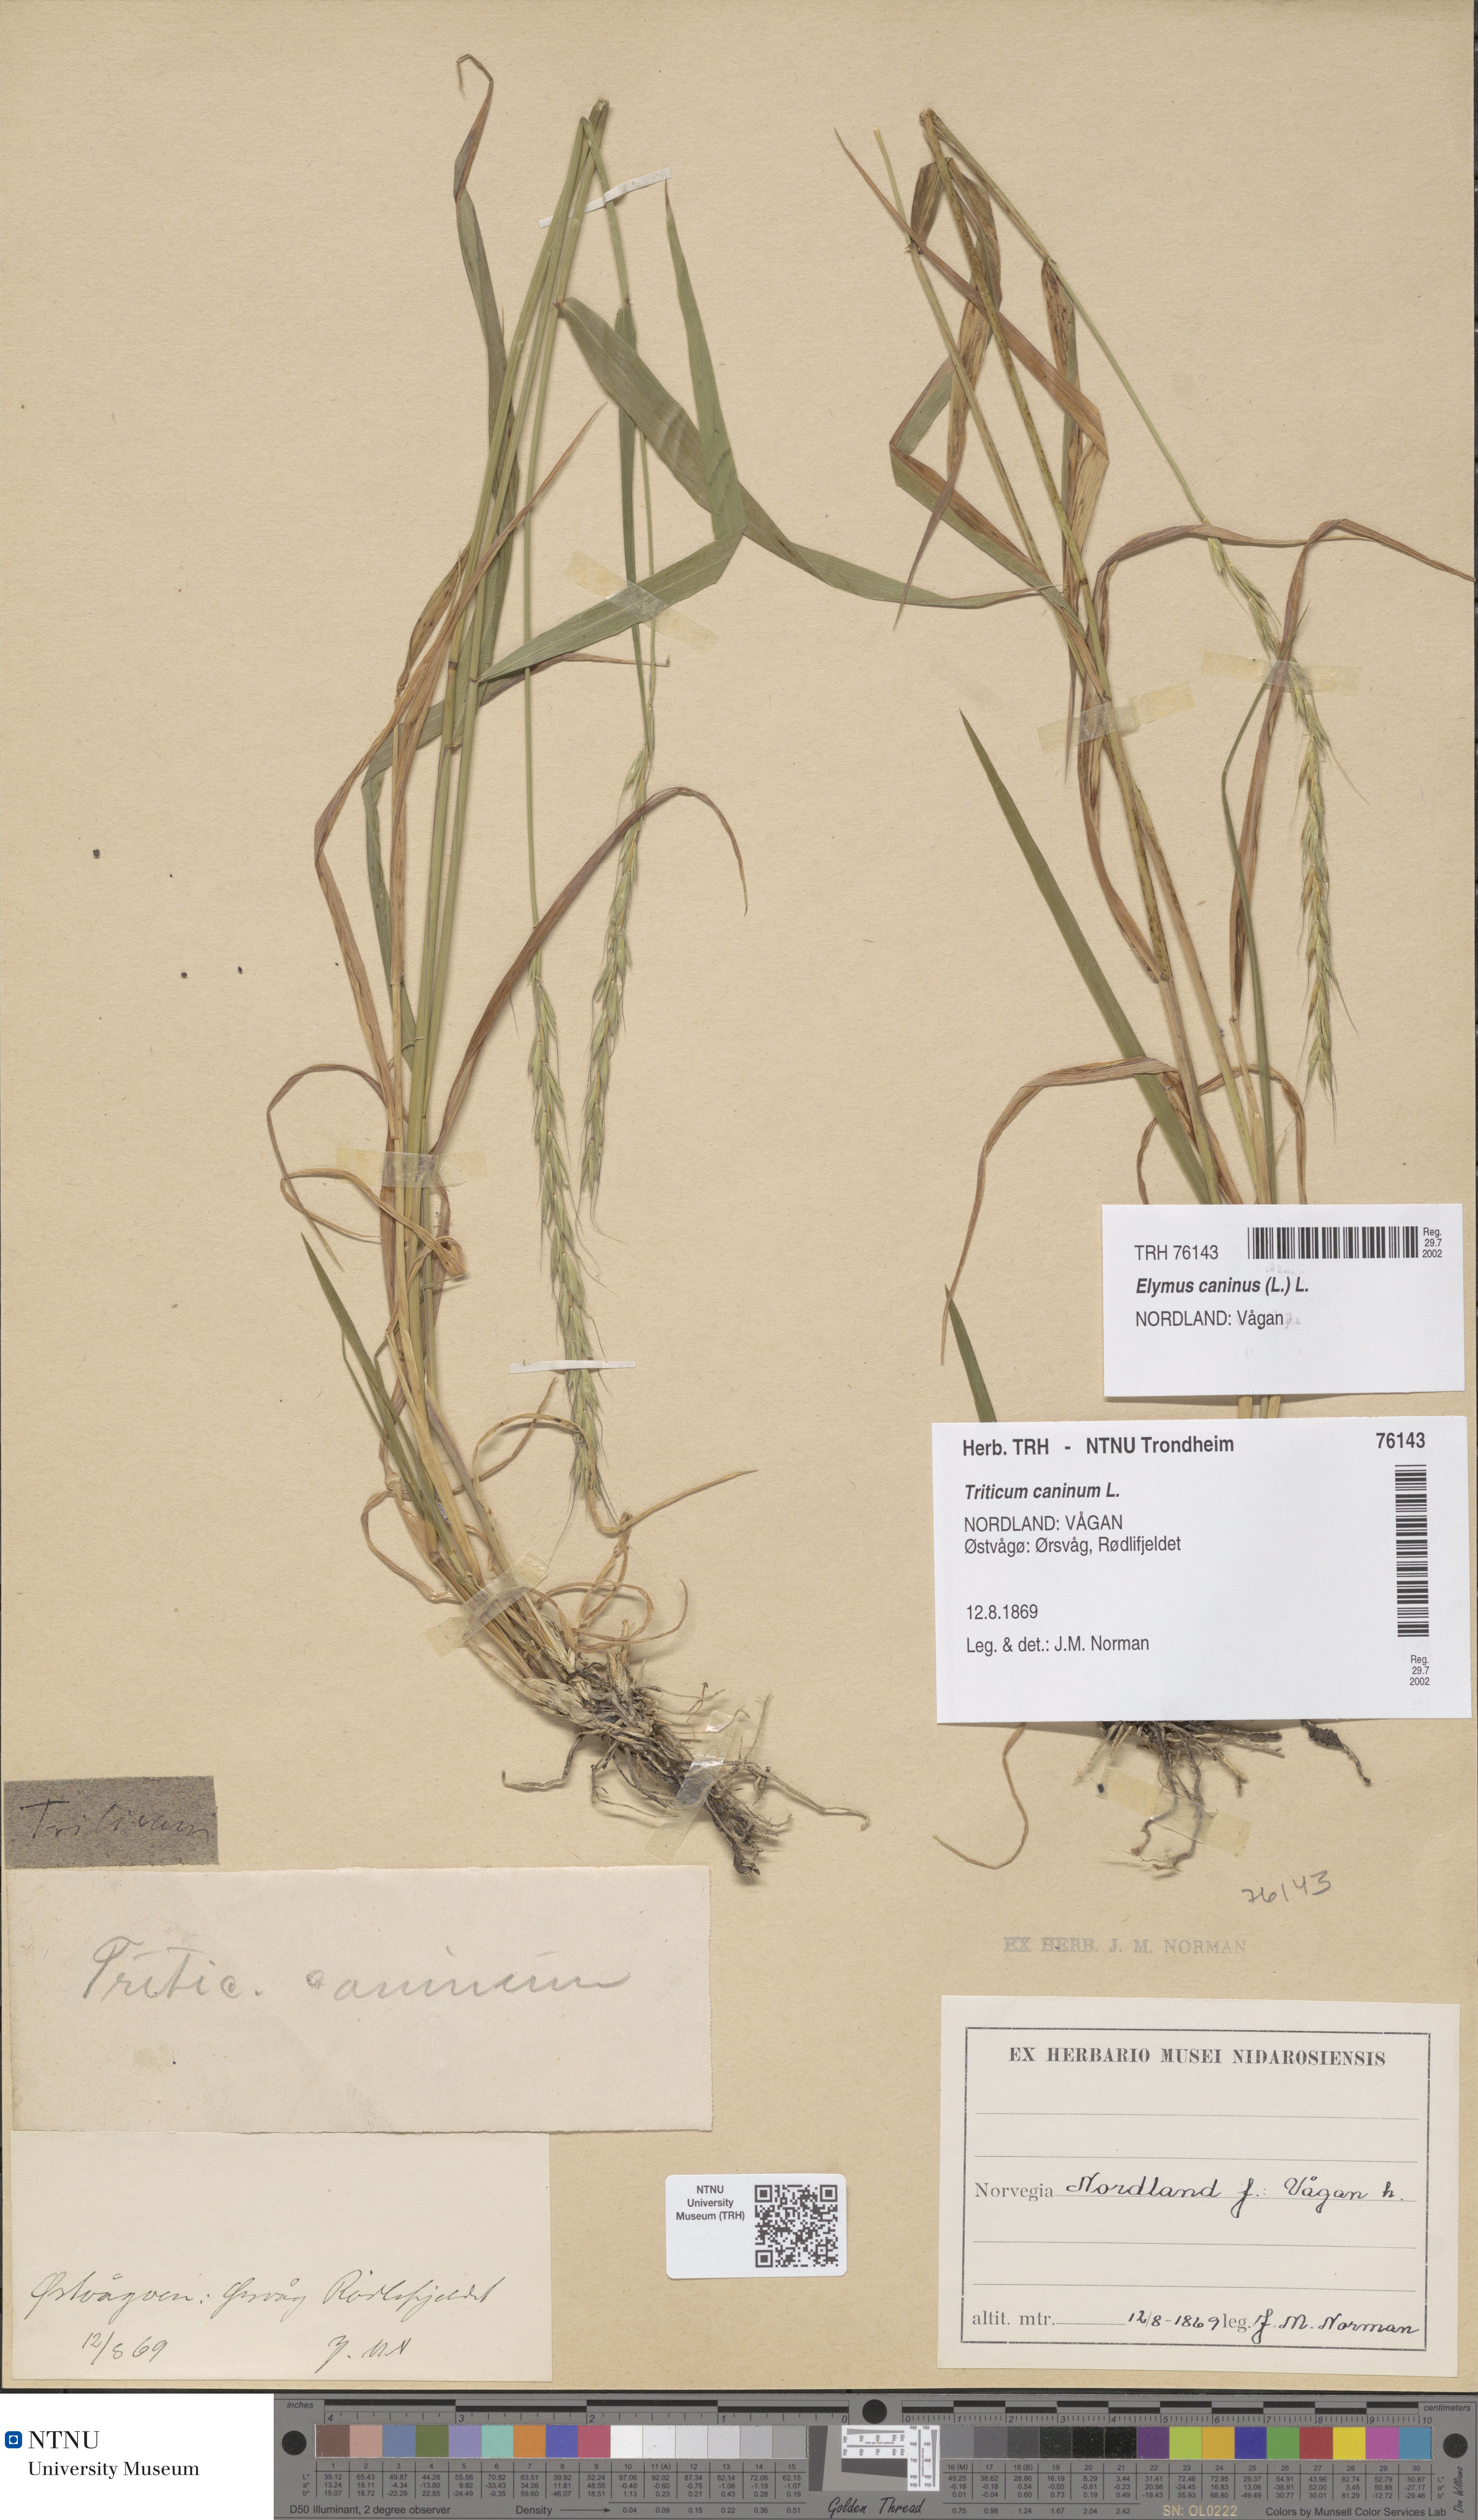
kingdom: Plantae
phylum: Tracheophyta
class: Liliopsida
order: Poales
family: Poaceae
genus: Elymus
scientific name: Elymus caninus
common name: Bearded couch
